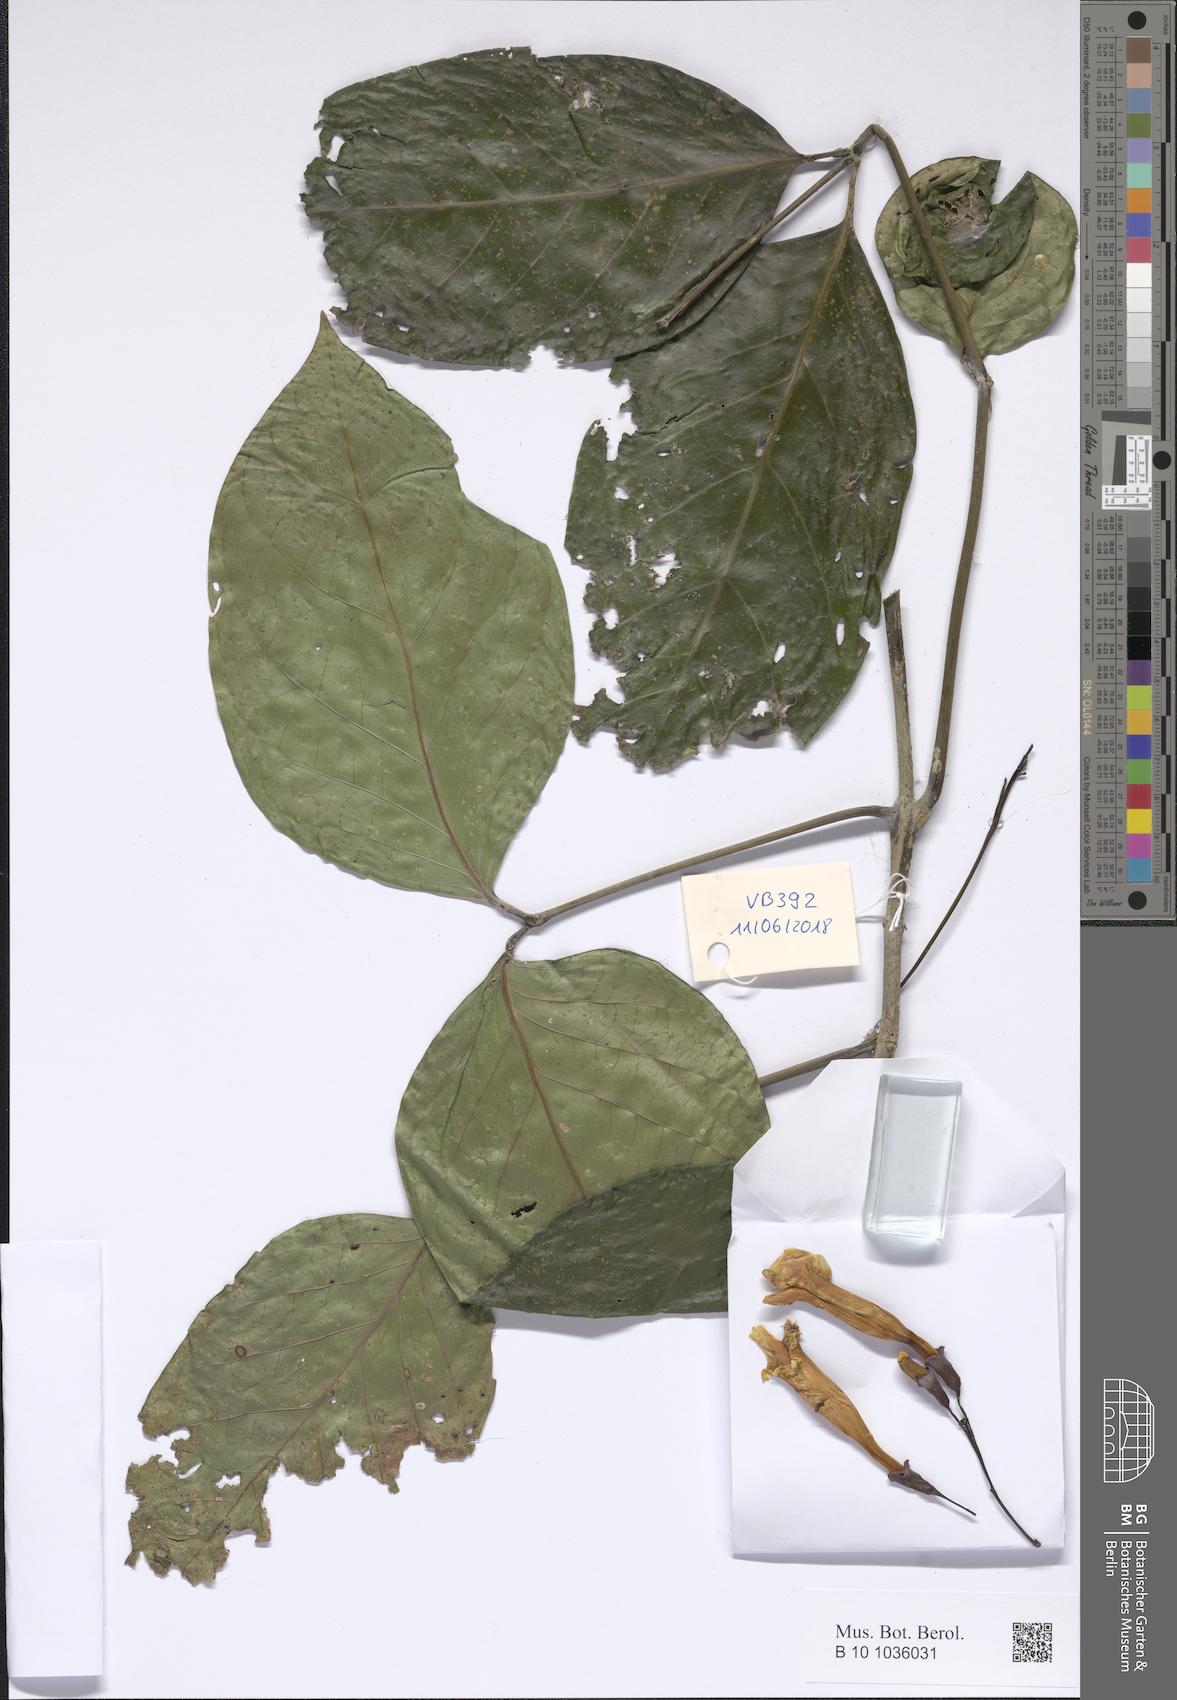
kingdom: Plantae
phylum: Tracheophyta
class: Magnoliopsida
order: Lamiales
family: Bignoniaceae
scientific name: Bignoniaceae
